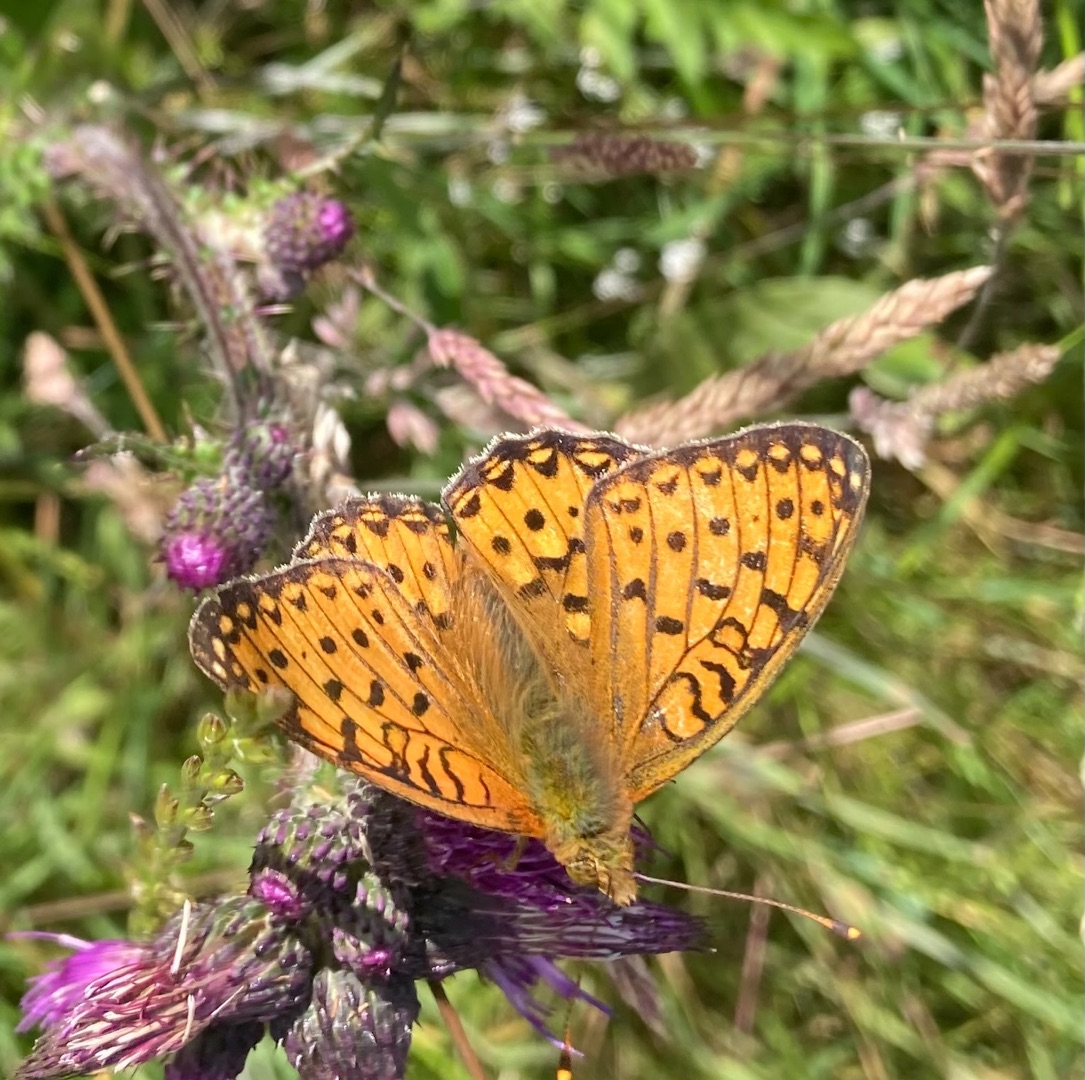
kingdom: Animalia
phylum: Arthropoda
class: Insecta
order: Lepidoptera
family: Nymphalidae
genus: Speyeria
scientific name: Speyeria aglaja
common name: Markperlemorsommerfugl
